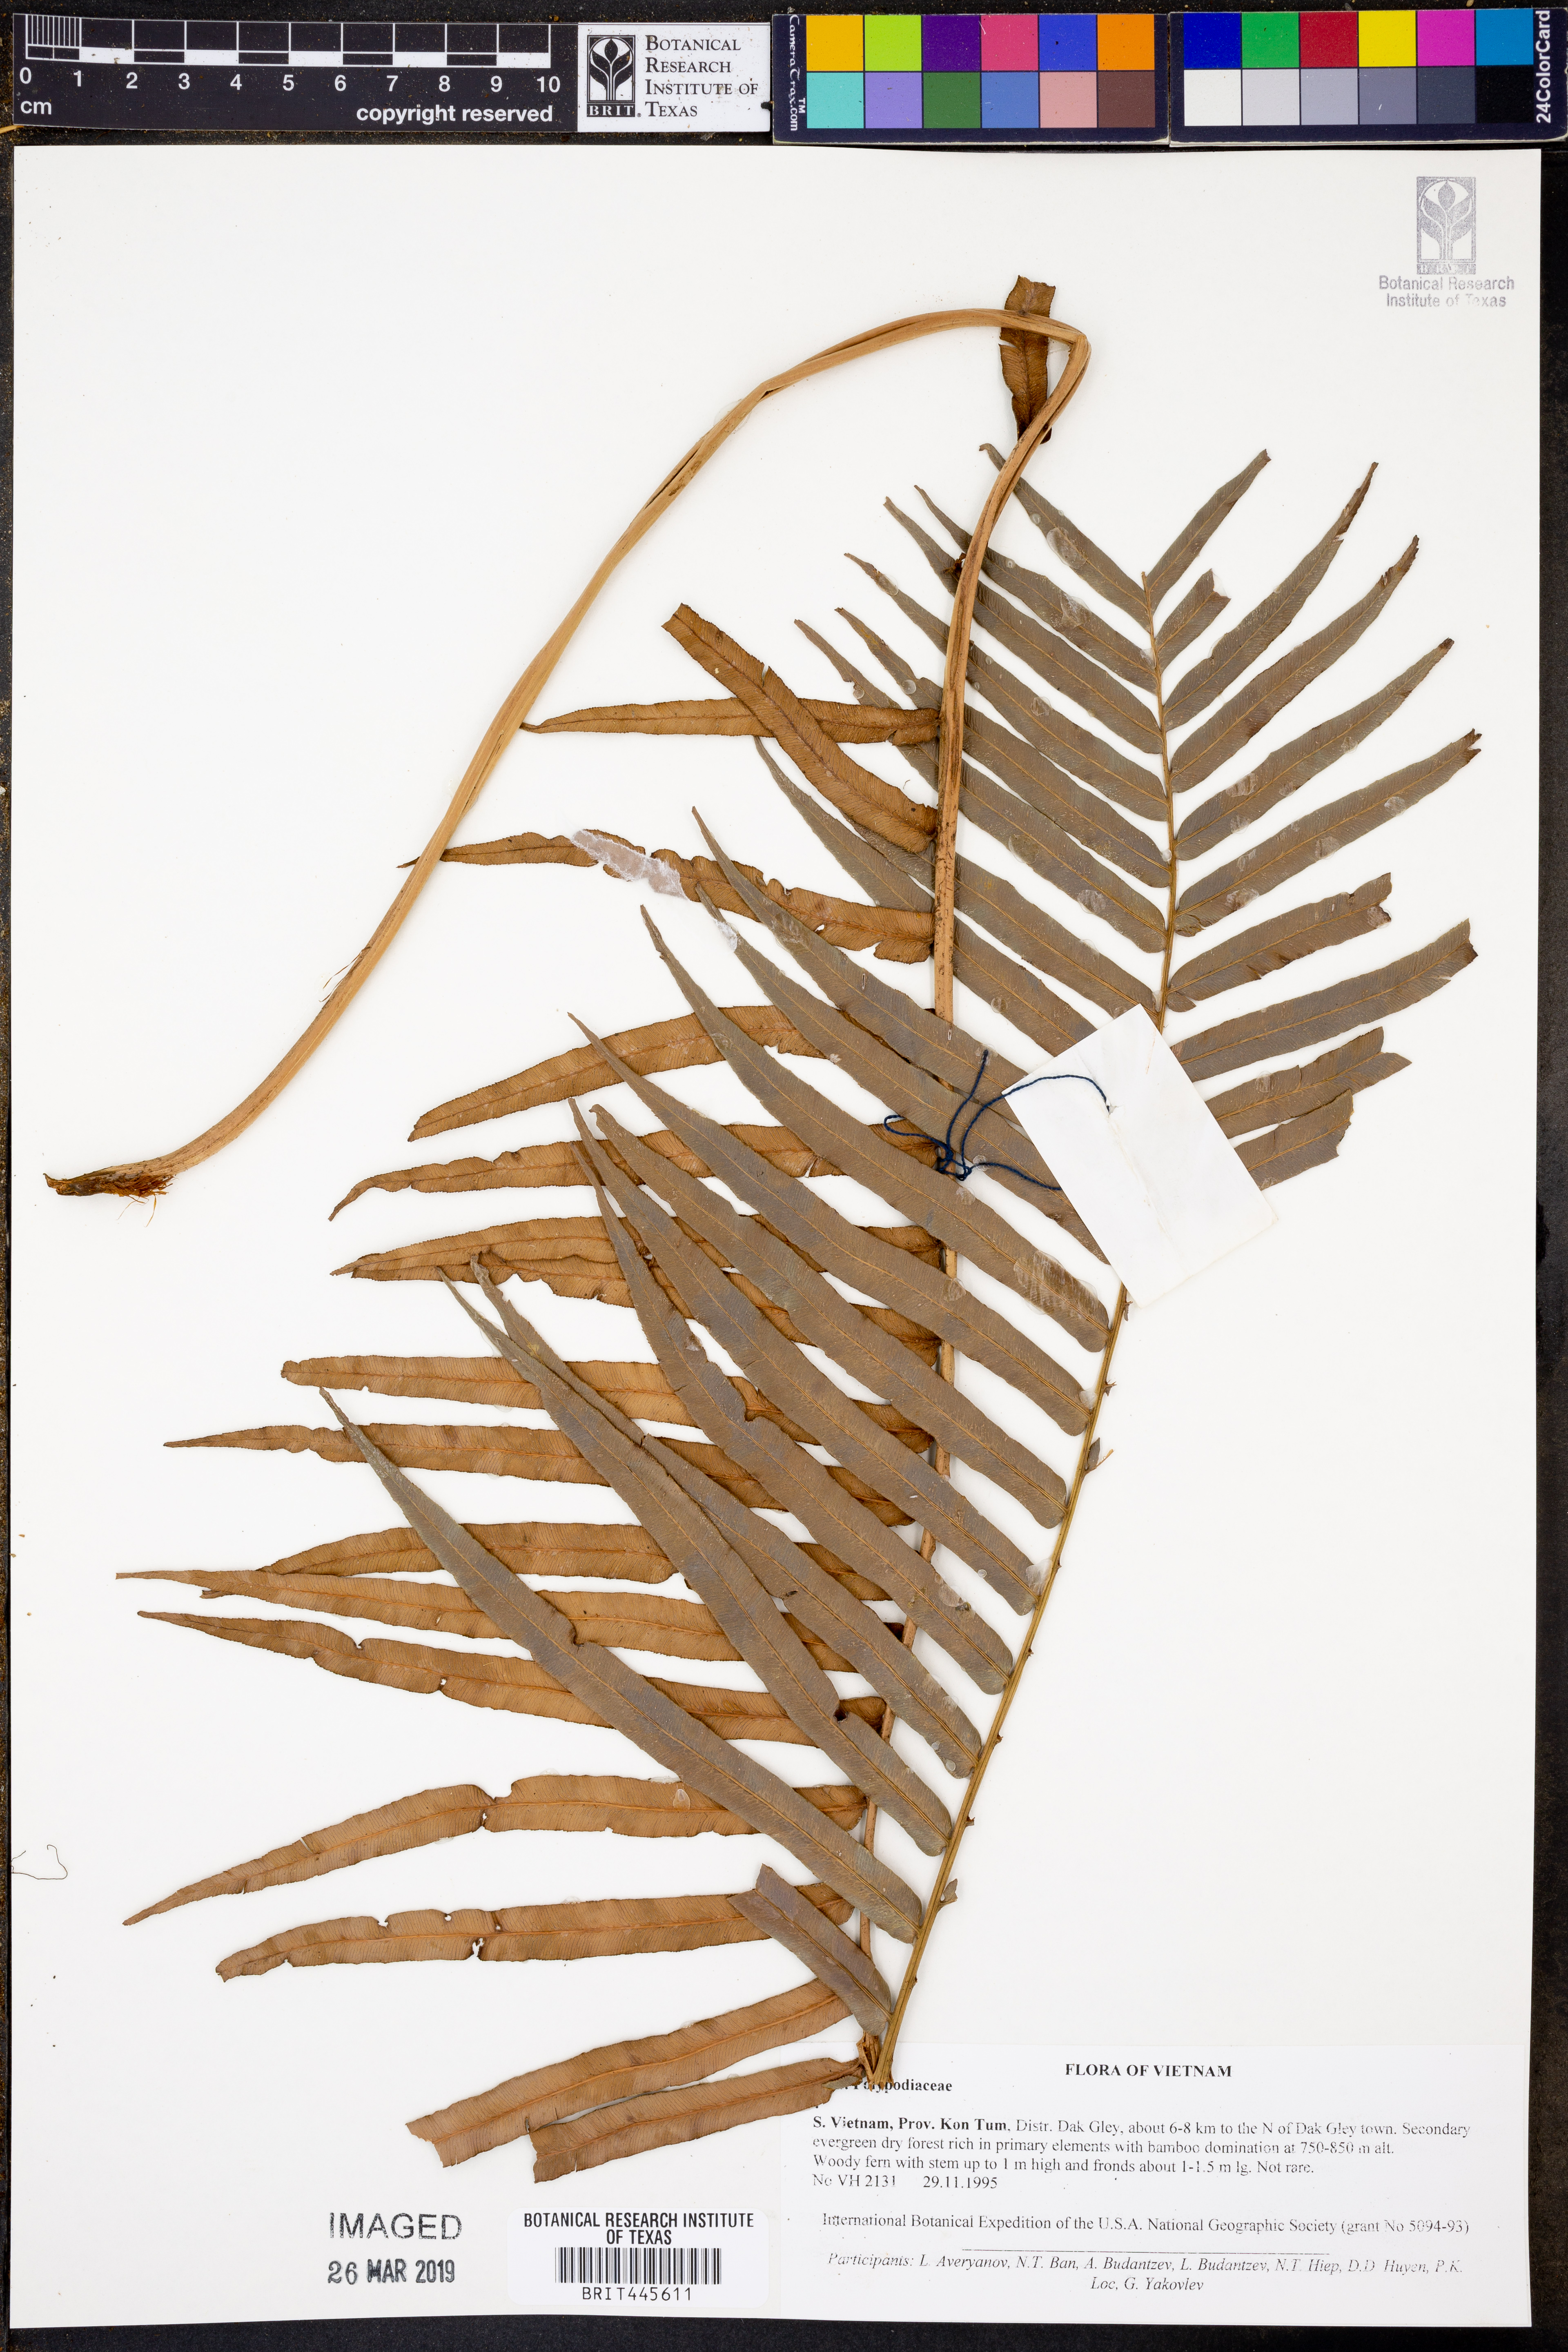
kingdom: Plantae
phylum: Tracheophyta
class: Polypodiopsida
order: Polypodiales
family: Polypodiaceae
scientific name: Polypodiaceae
